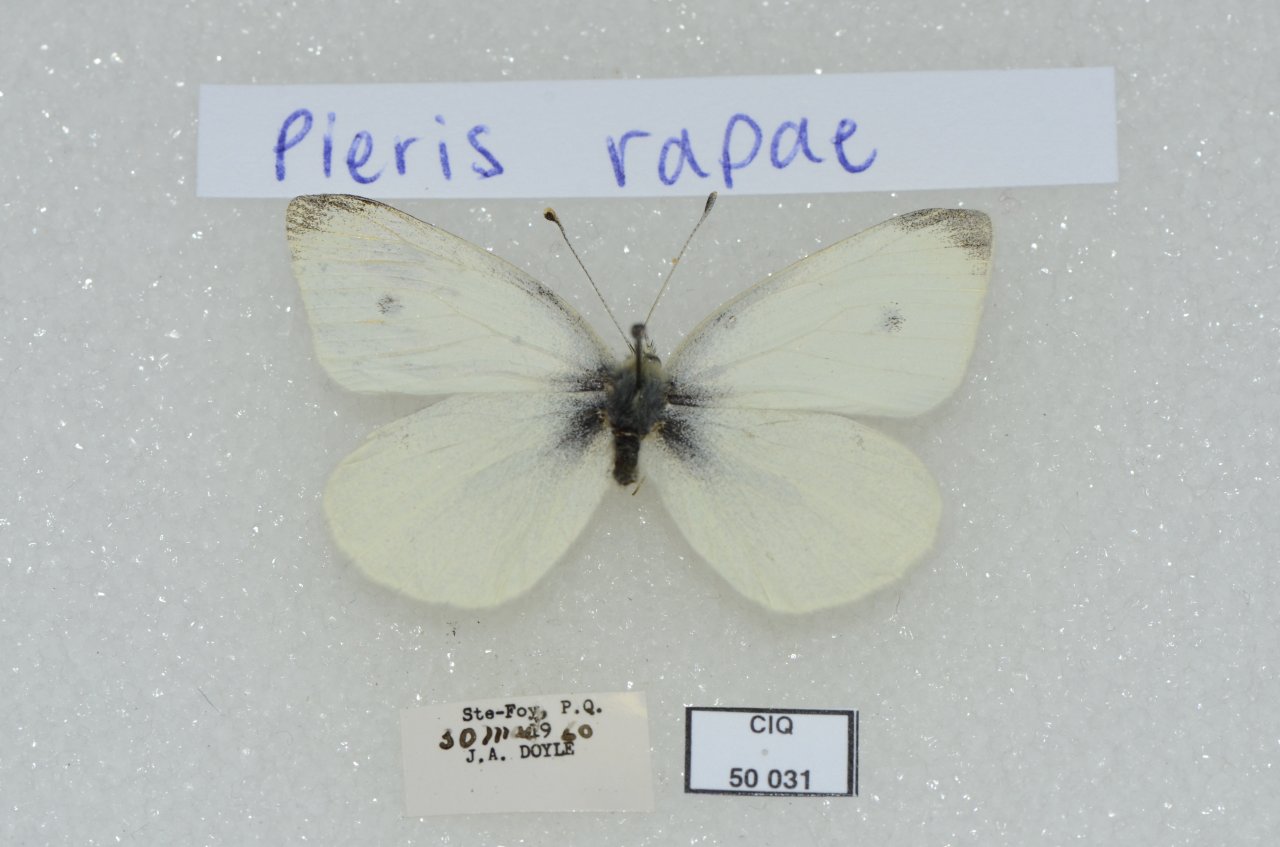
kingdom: Animalia
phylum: Arthropoda
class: Insecta
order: Lepidoptera
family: Pieridae
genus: Pieris
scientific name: Pieris rapae
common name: Cabbage White
